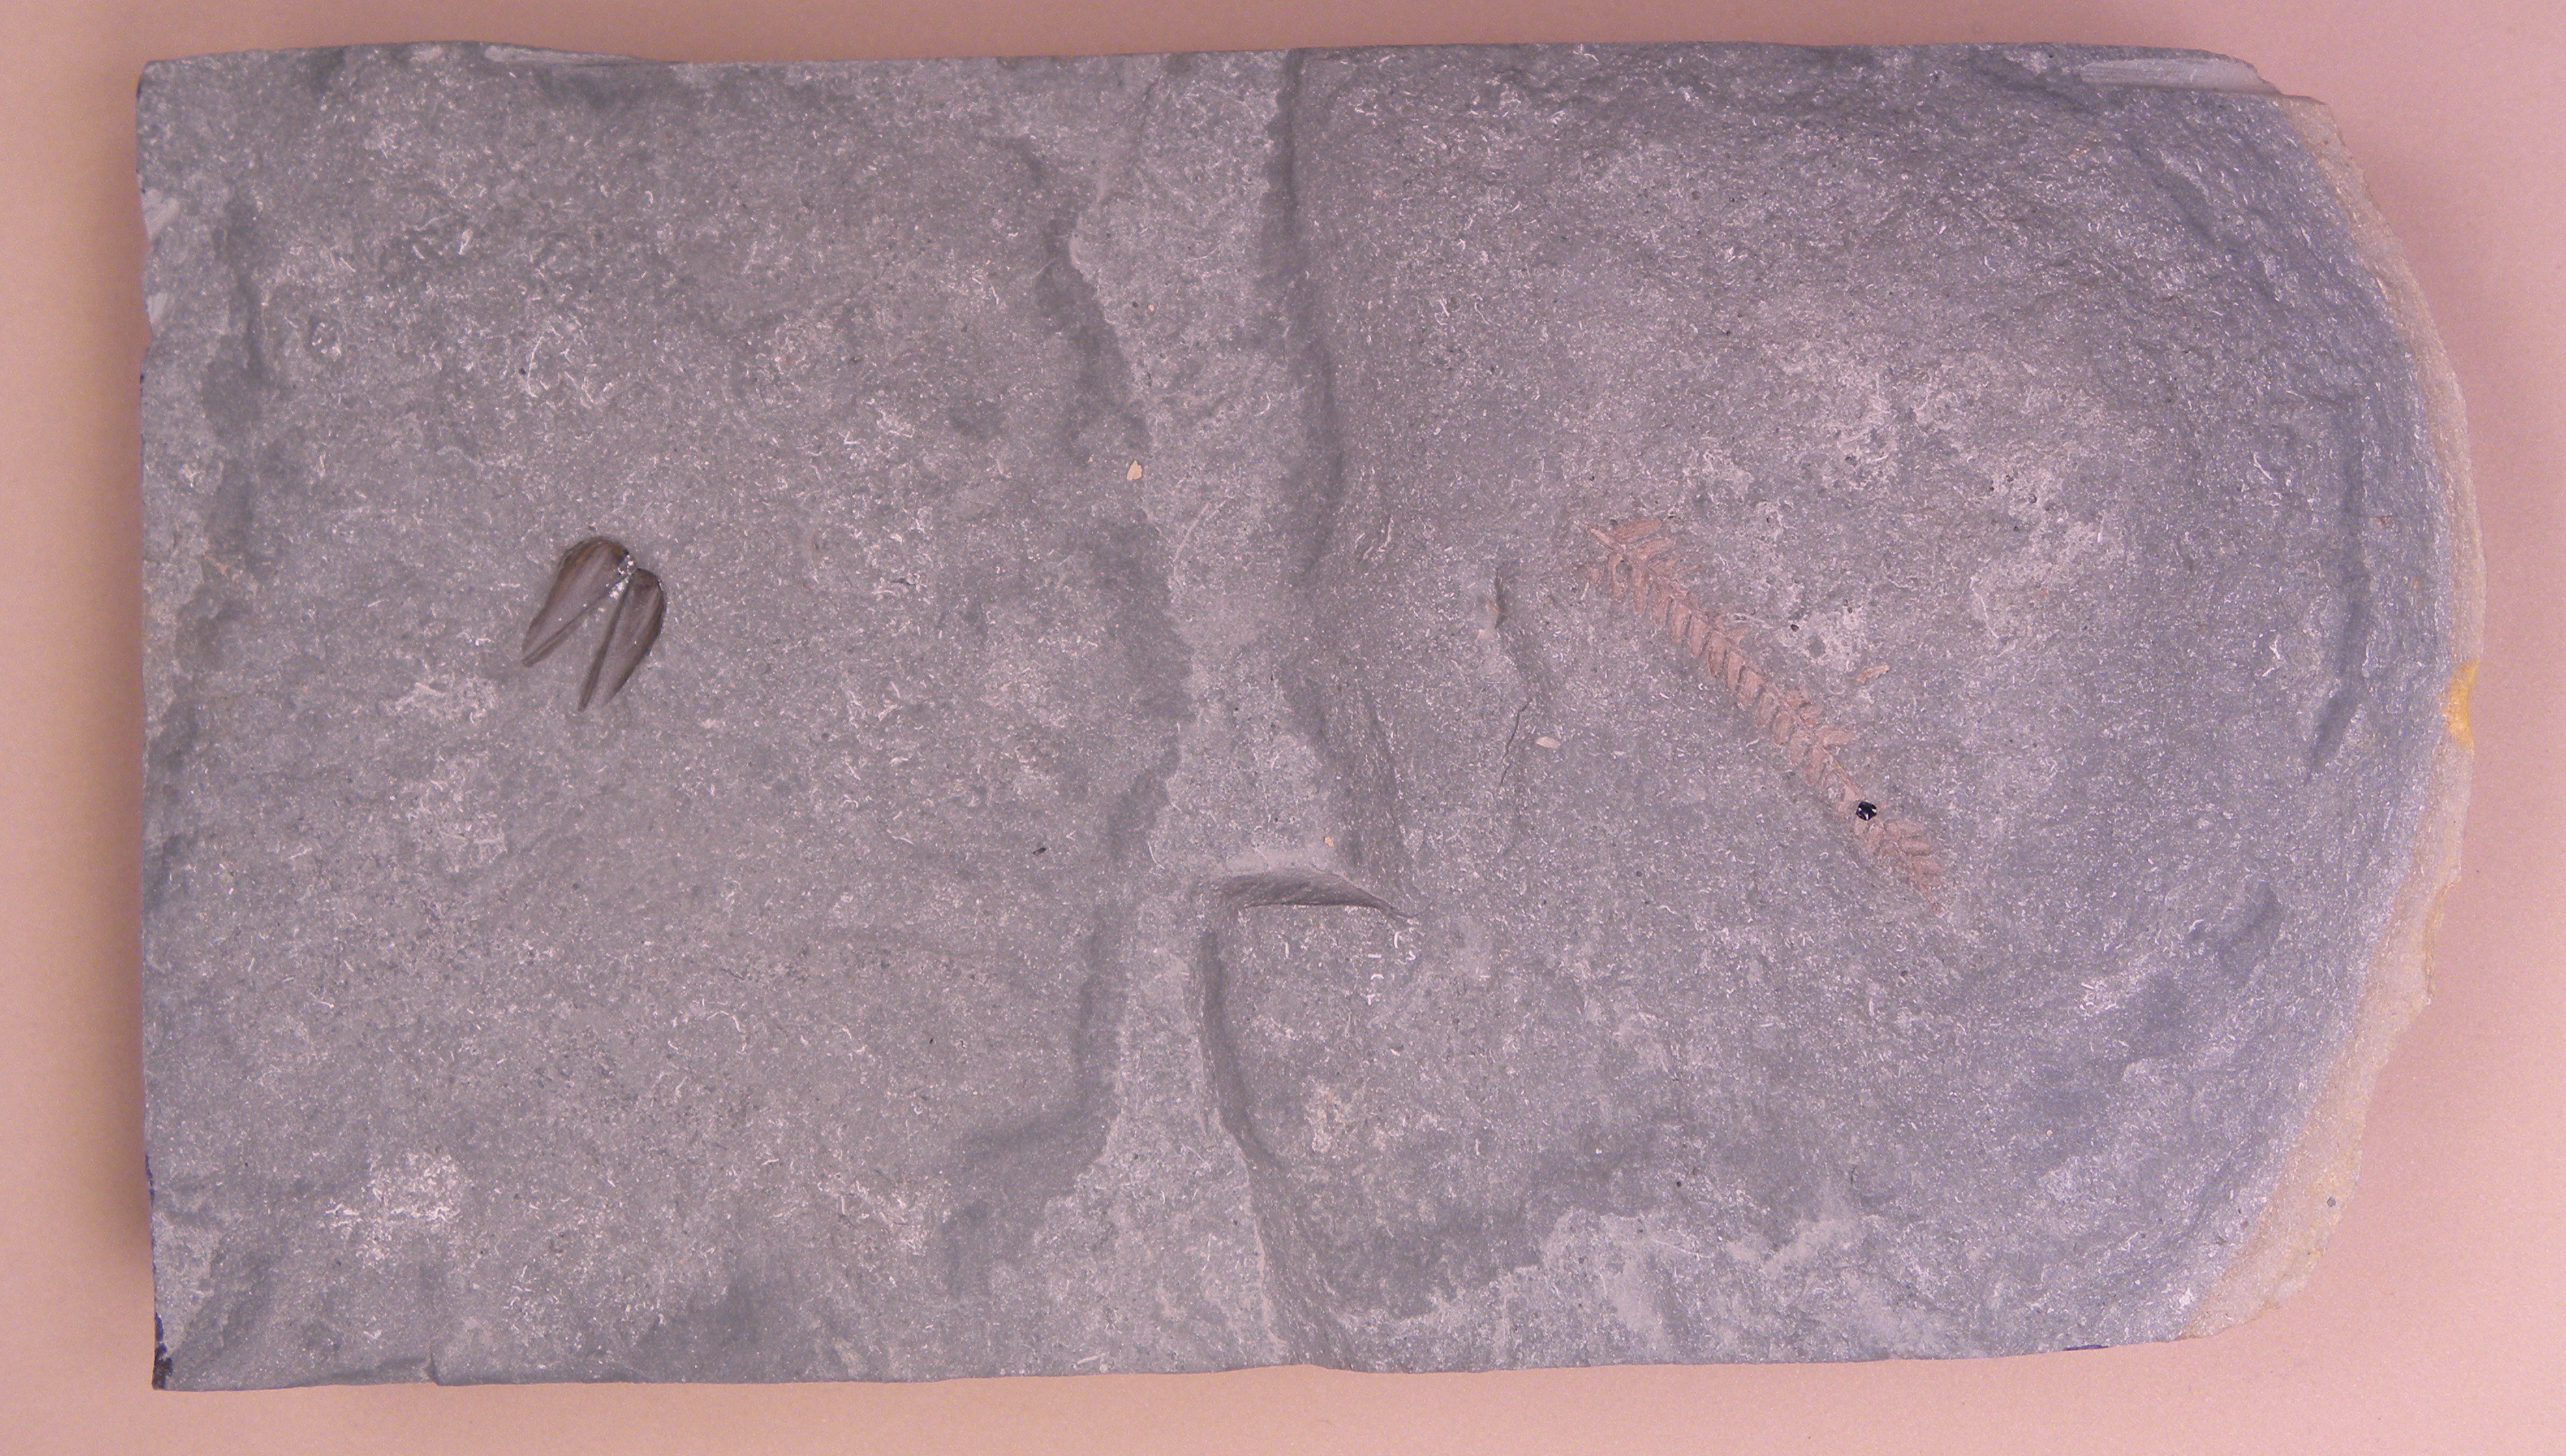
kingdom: Animalia
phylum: Mollusca
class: Cephalopoda
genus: Aptychus
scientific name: Aptychus
